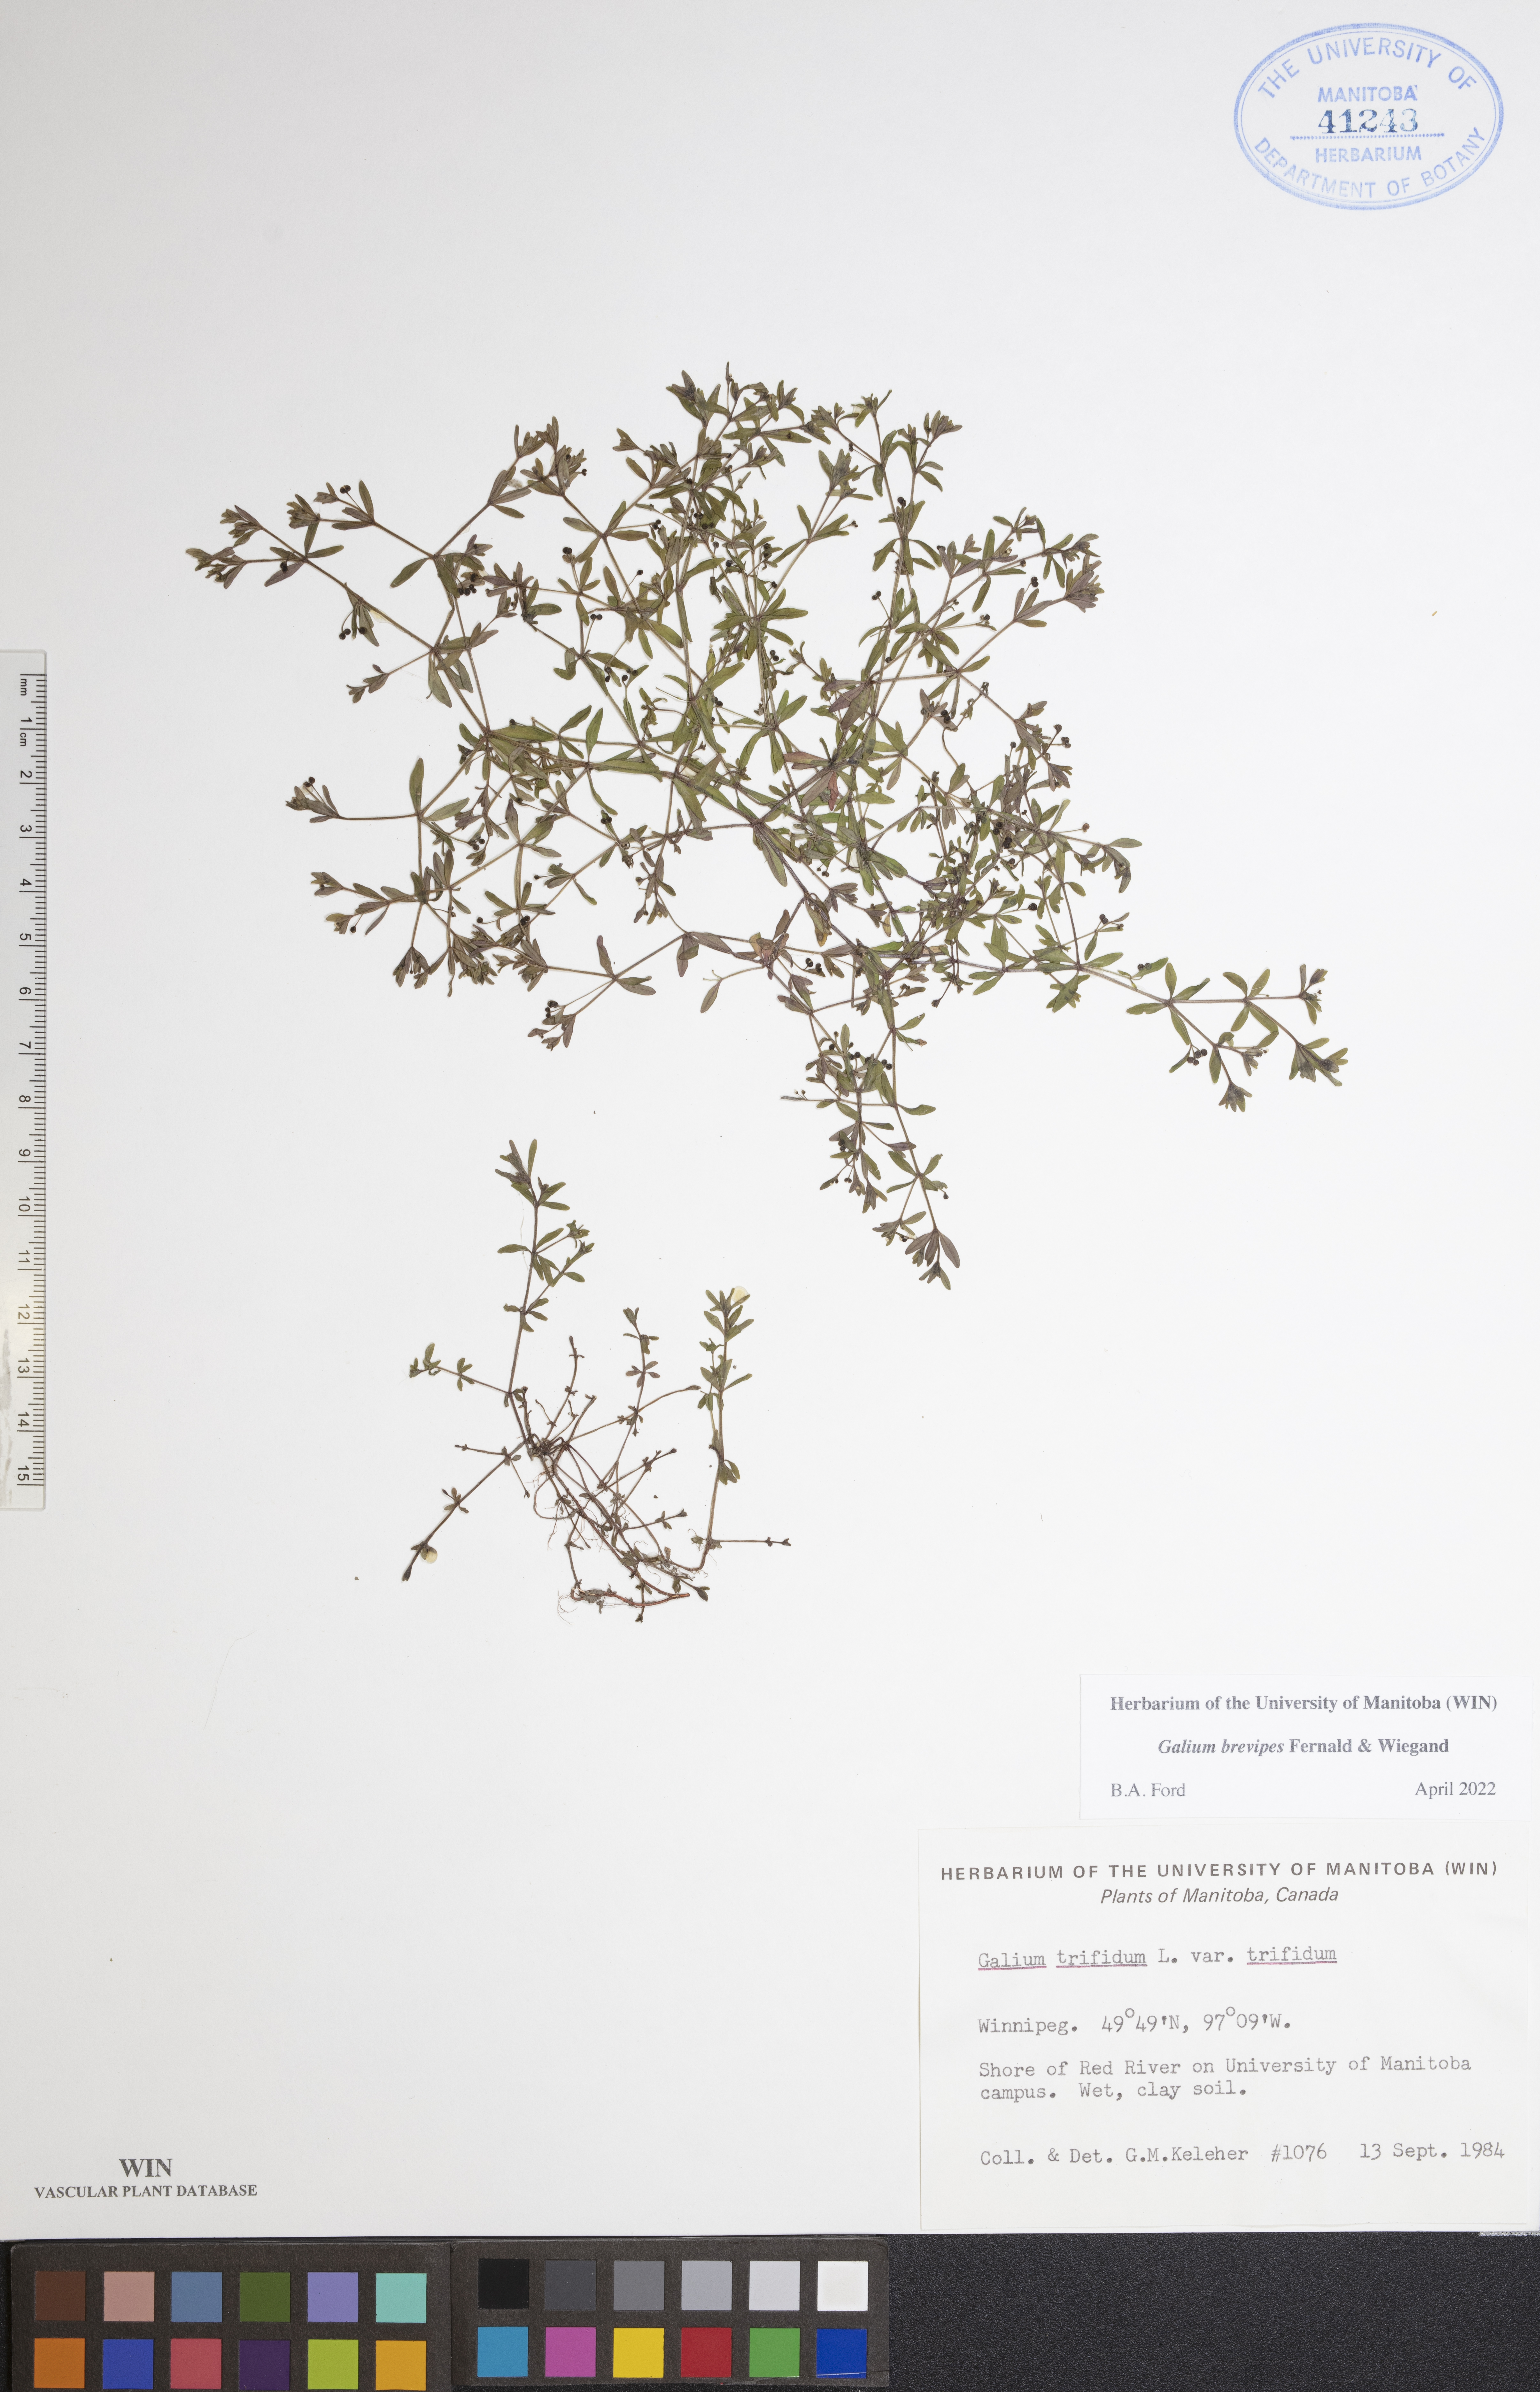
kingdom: Plantae
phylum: Tracheophyta
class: Magnoliopsida
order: Gentianales
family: Rubiaceae
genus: Galium
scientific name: Galium domingense
